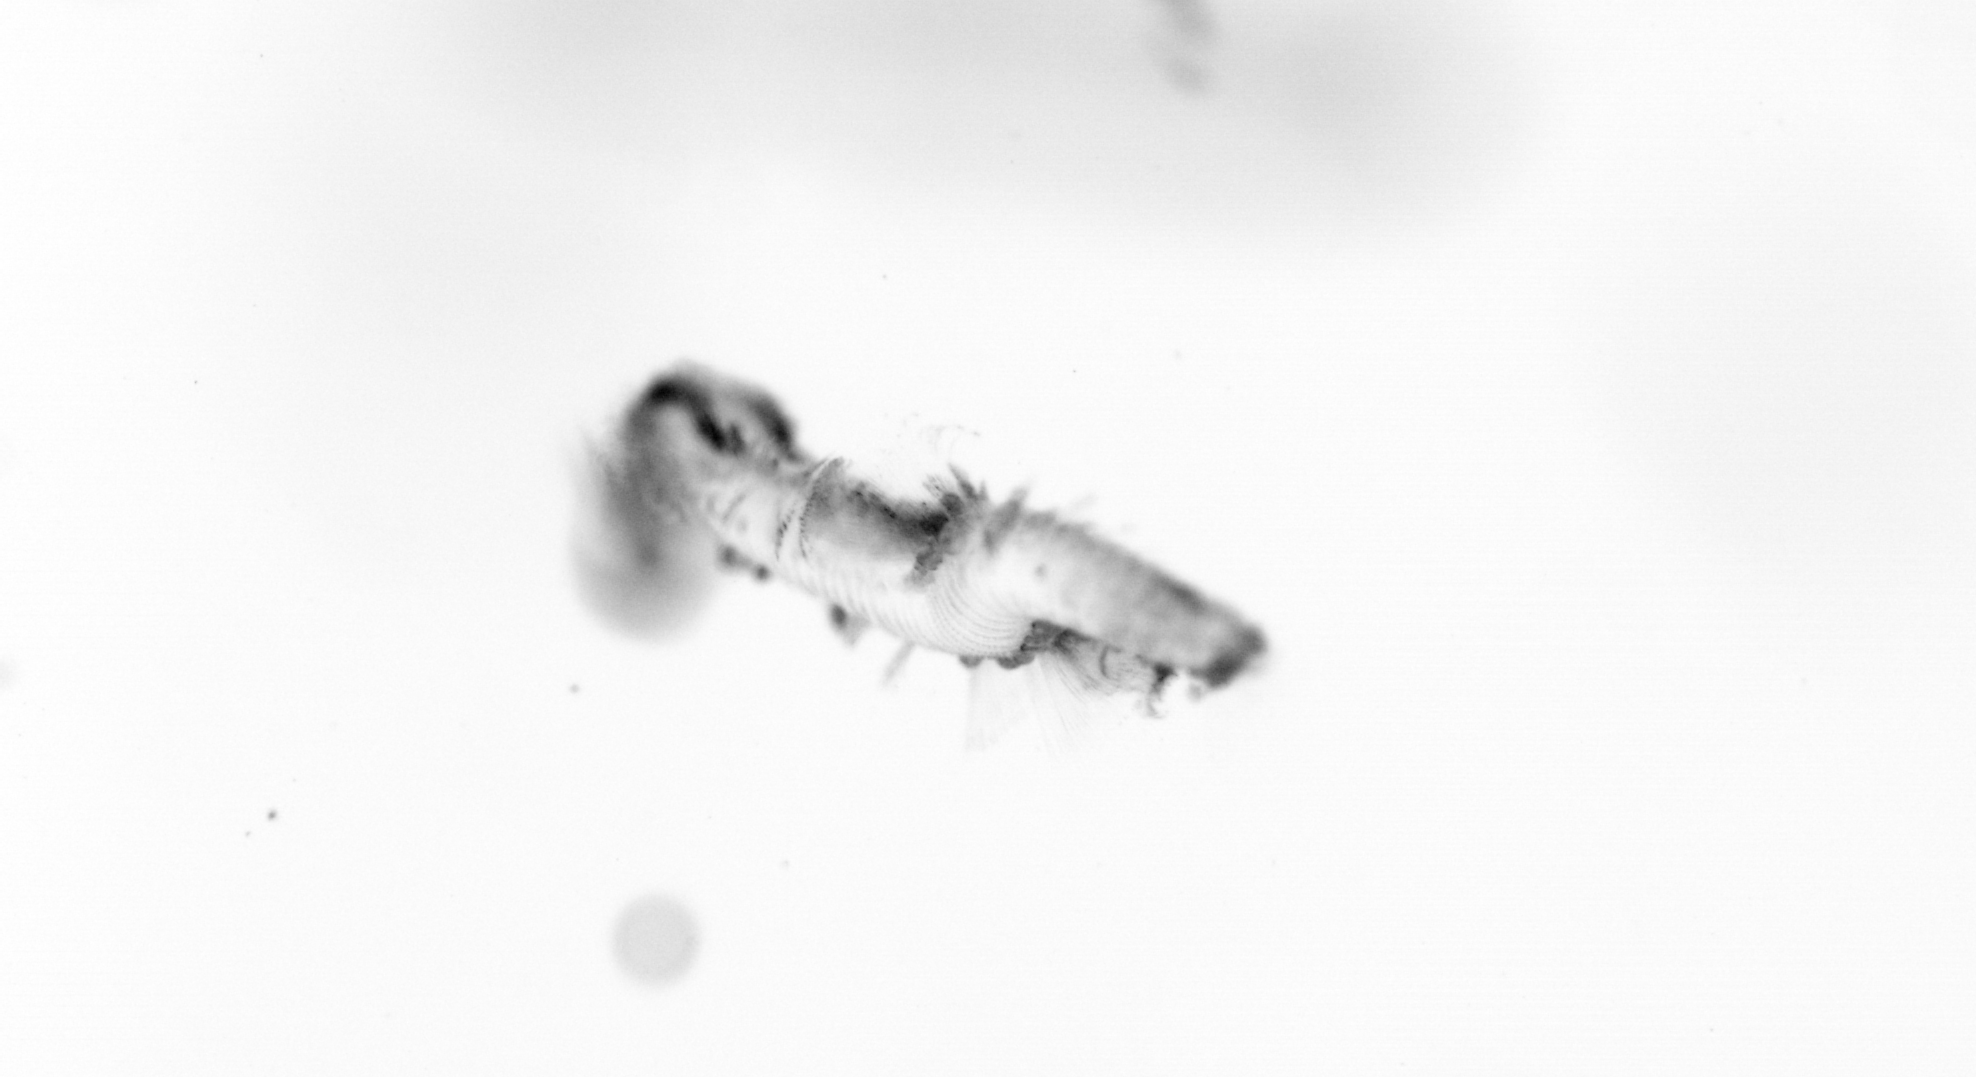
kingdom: Animalia
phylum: Annelida
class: Polychaeta
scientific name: Polychaeta
